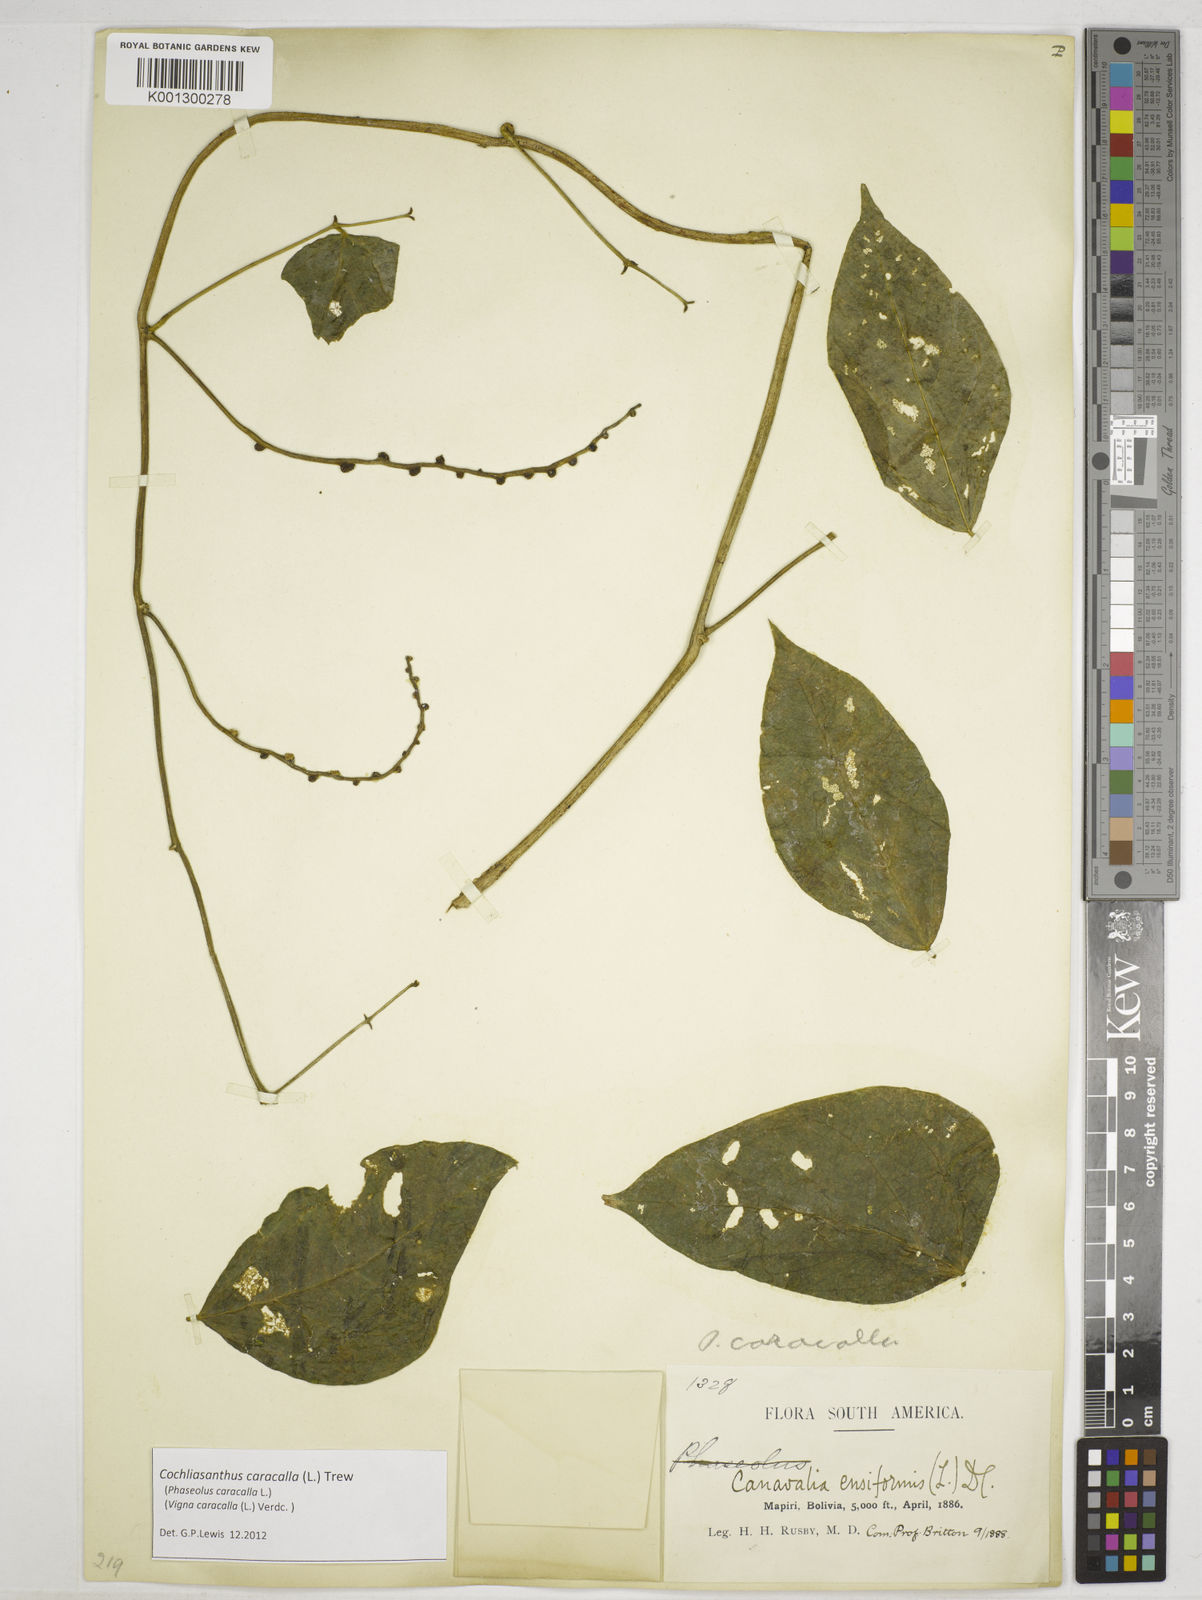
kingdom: Plantae
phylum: Tracheophyta
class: Magnoliopsida
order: Fabales
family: Fabaceae
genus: Cochliasanthus
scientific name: Cochliasanthus caracalla
